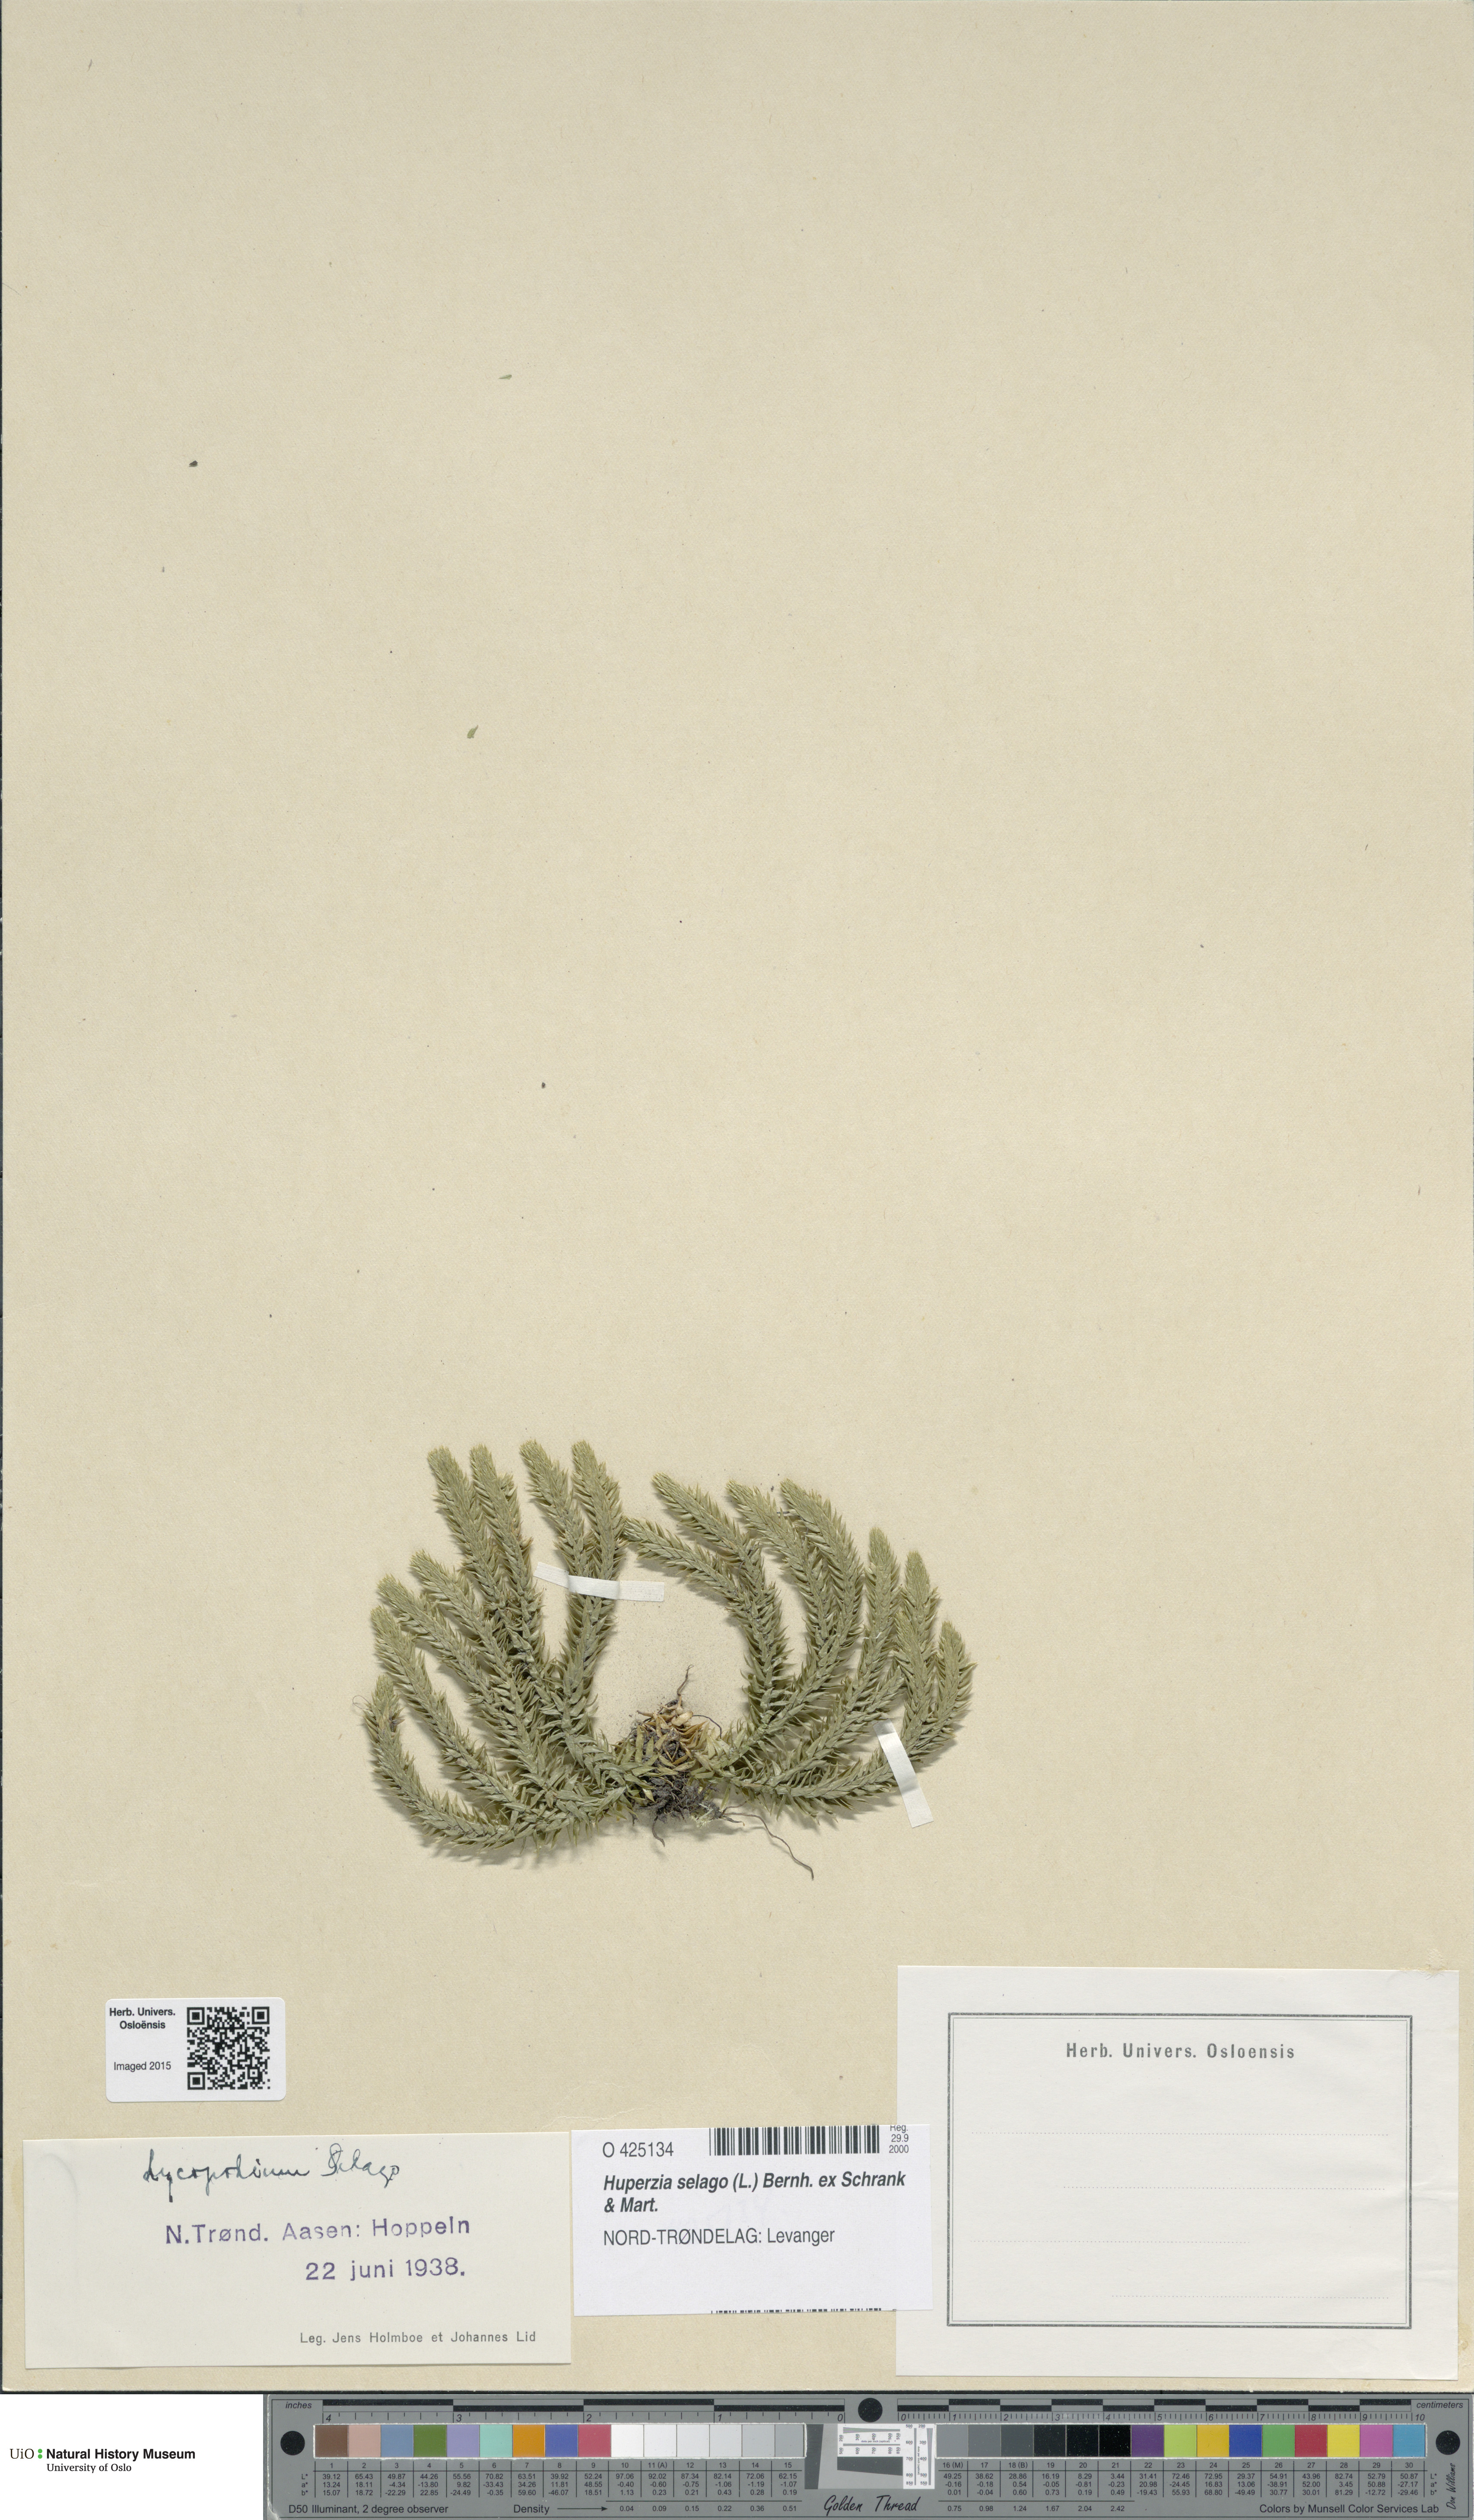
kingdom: Plantae
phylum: Tracheophyta
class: Lycopodiopsida
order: Lycopodiales
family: Lycopodiaceae
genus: Huperzia
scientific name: Huperzia selago
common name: Northern firmoss
